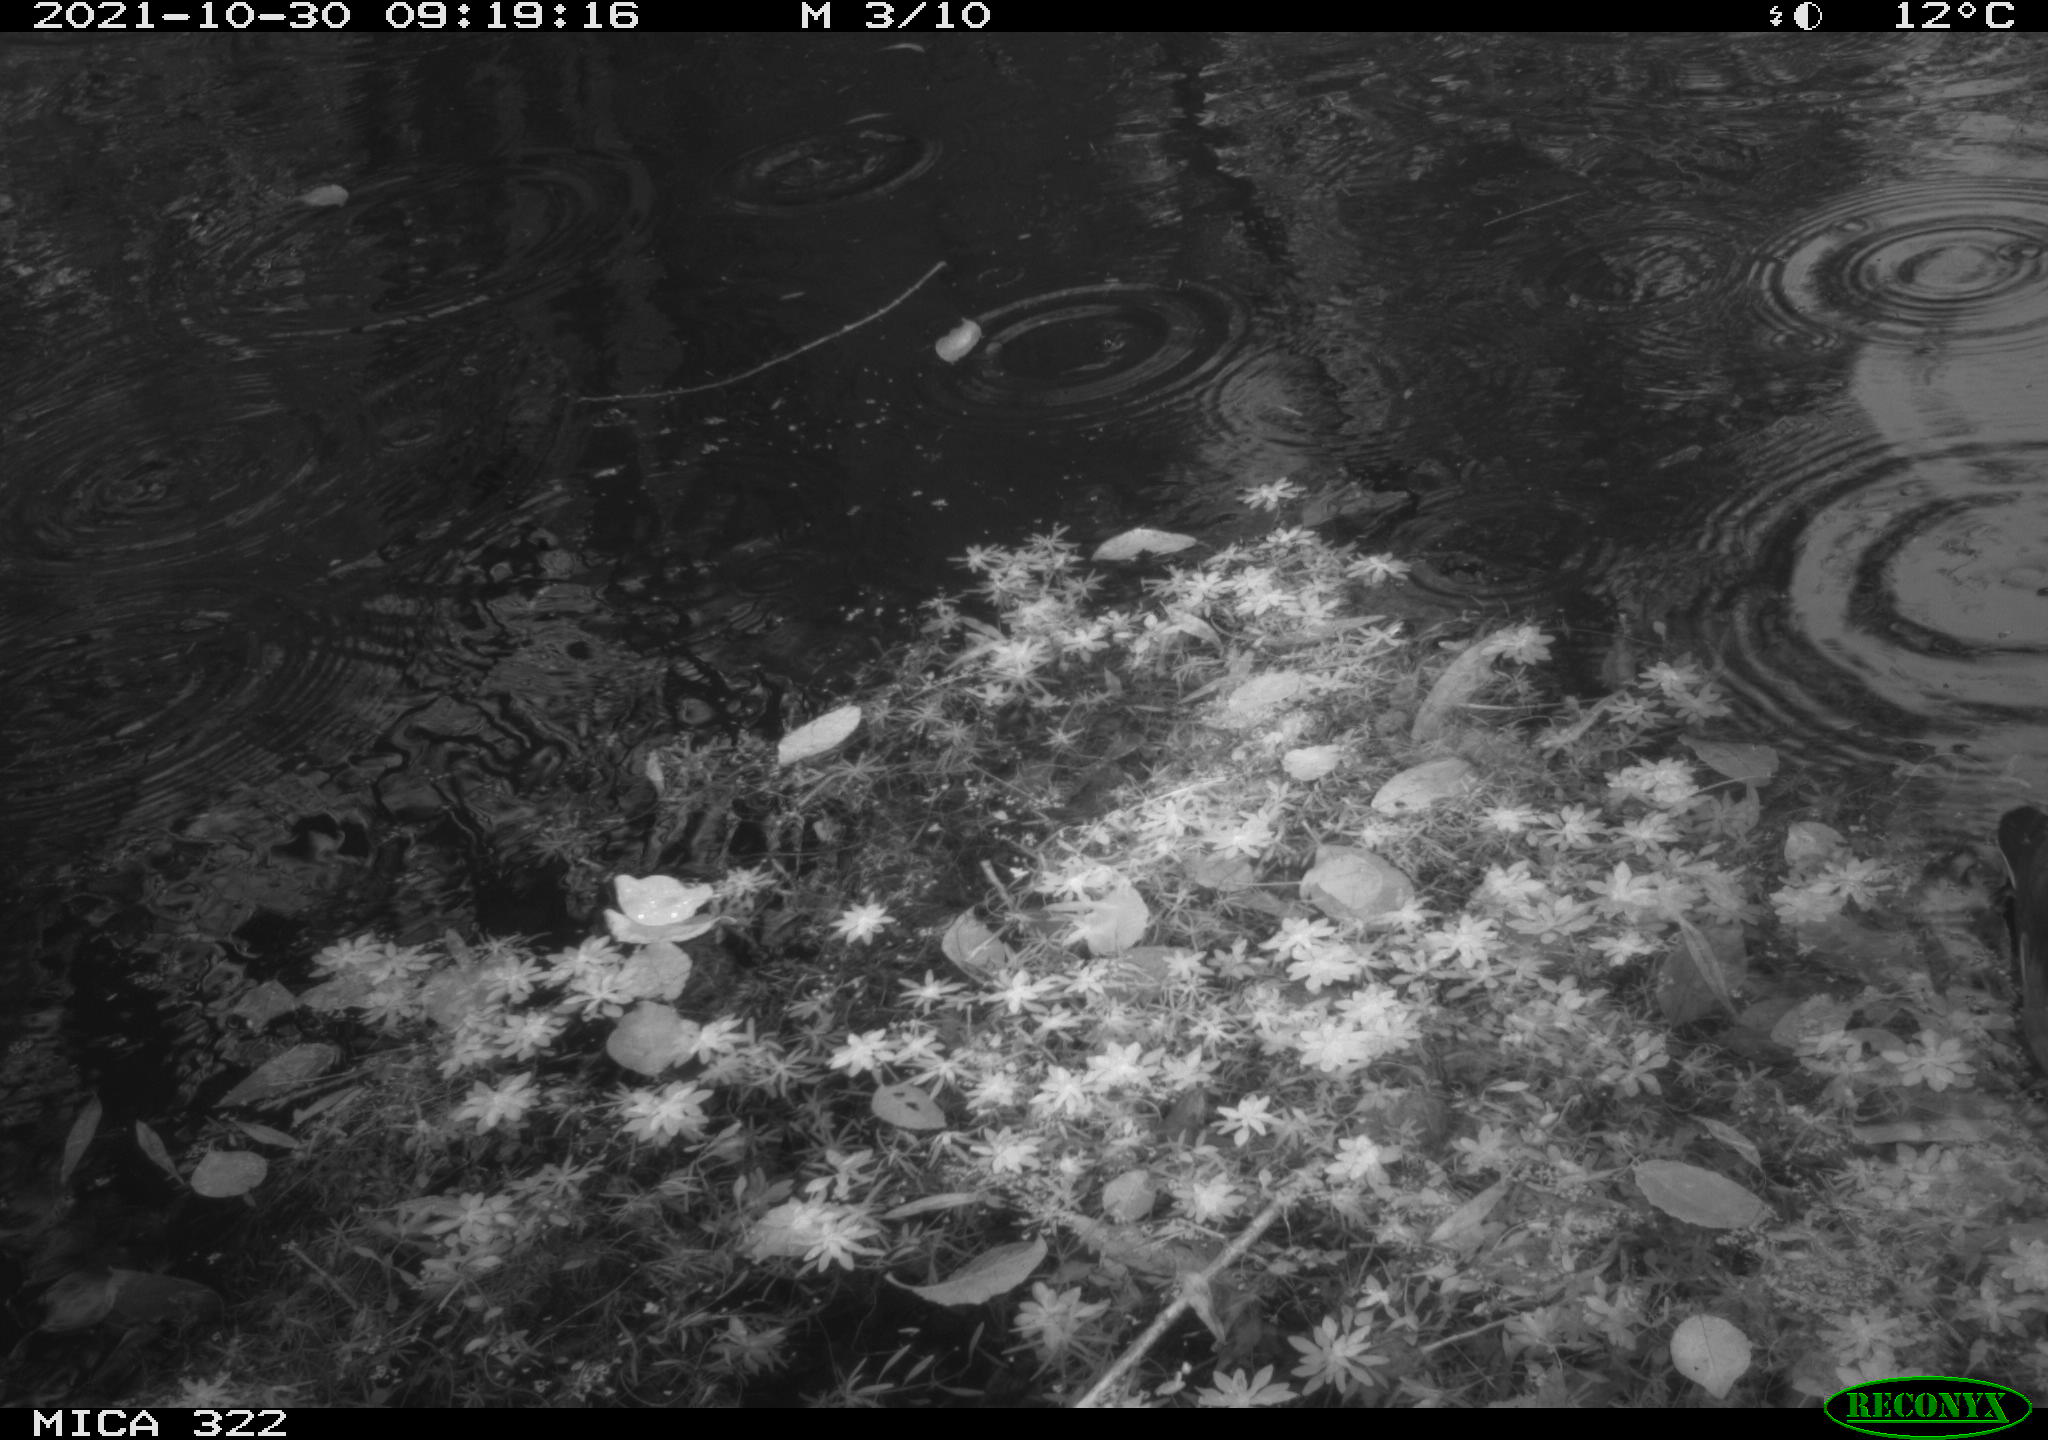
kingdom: Animalia
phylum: Chordata
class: Aves
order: Gruiformes
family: Rallidae
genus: Gallinula
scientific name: Gallinula chloropus
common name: Common moorhen
